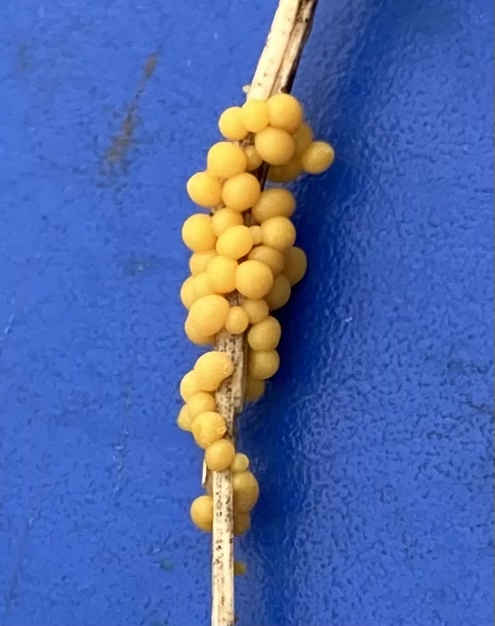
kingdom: Protozoa
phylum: Mycetozoa
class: Myxomycetes
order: Physarales
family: Physaraceae
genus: Physarum
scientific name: Physarum
